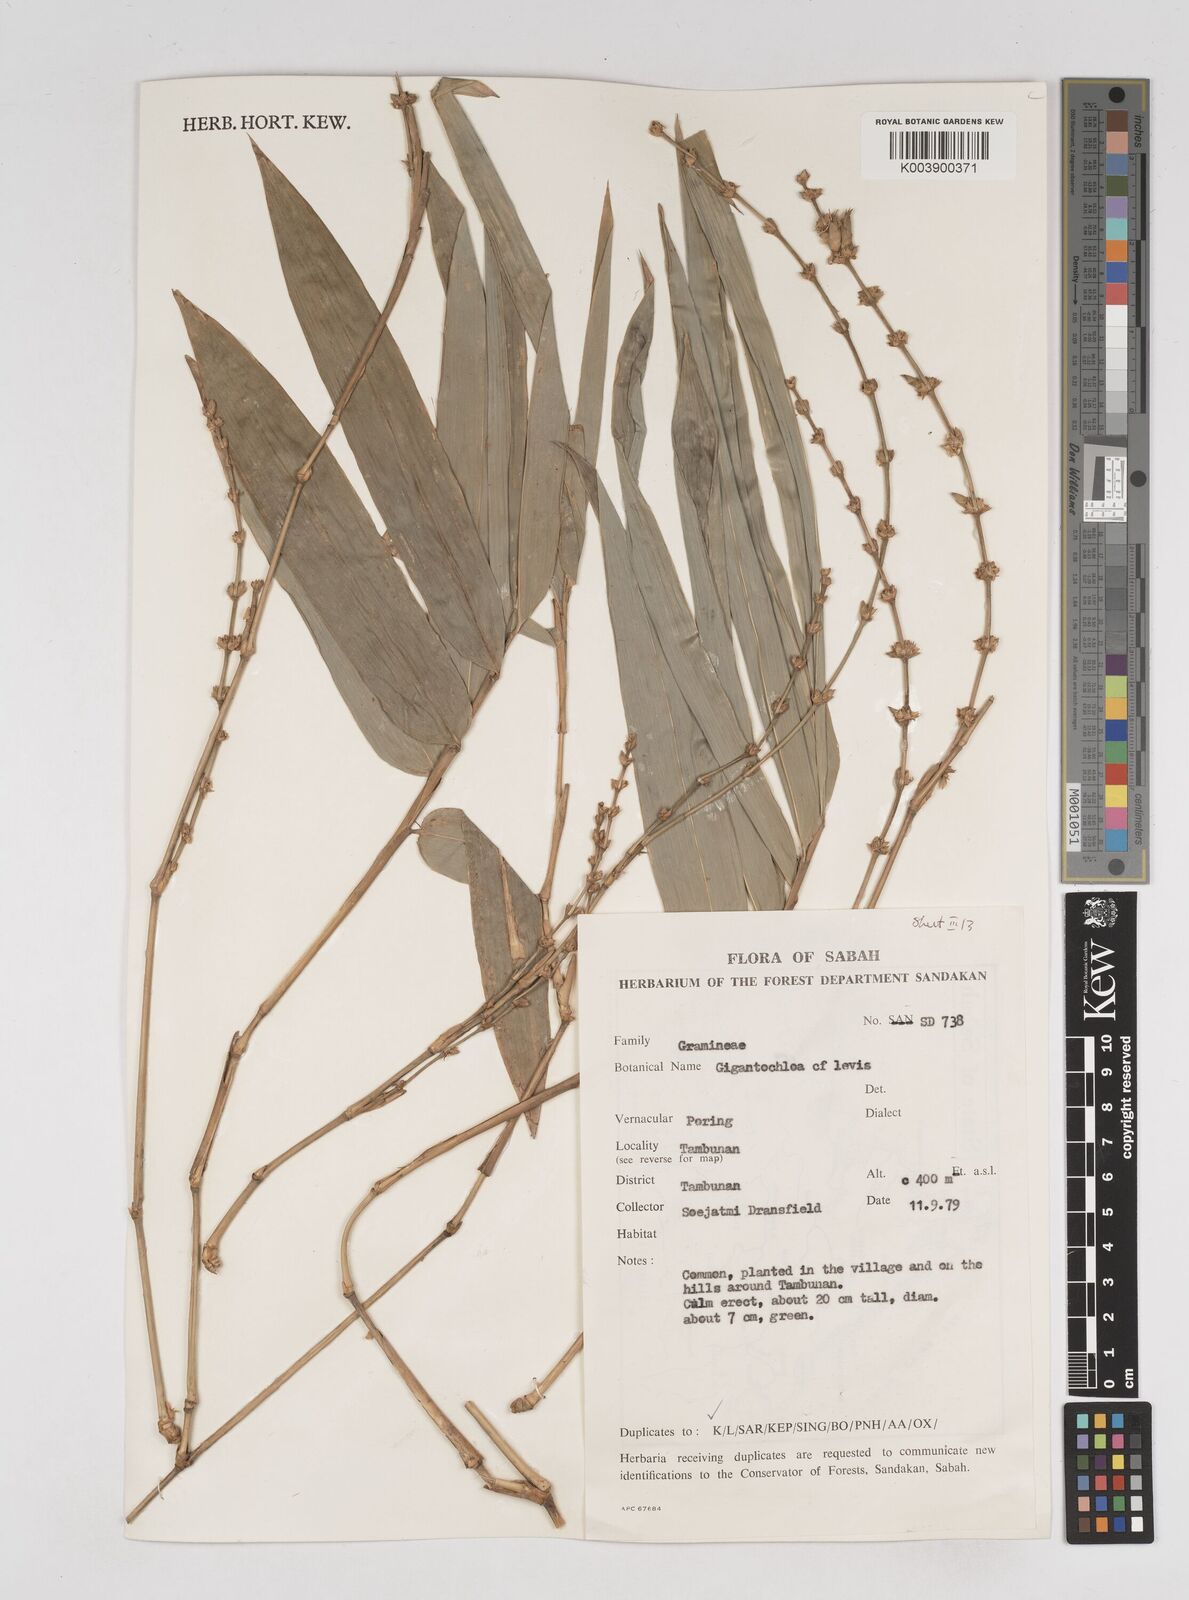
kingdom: Plantae
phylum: Tracheophyta
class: Liliopsida
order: Poales
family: Poaceae
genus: Gigantochloa
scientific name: Gigantochloa levis
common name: Smooth-shoot gigantochloa
